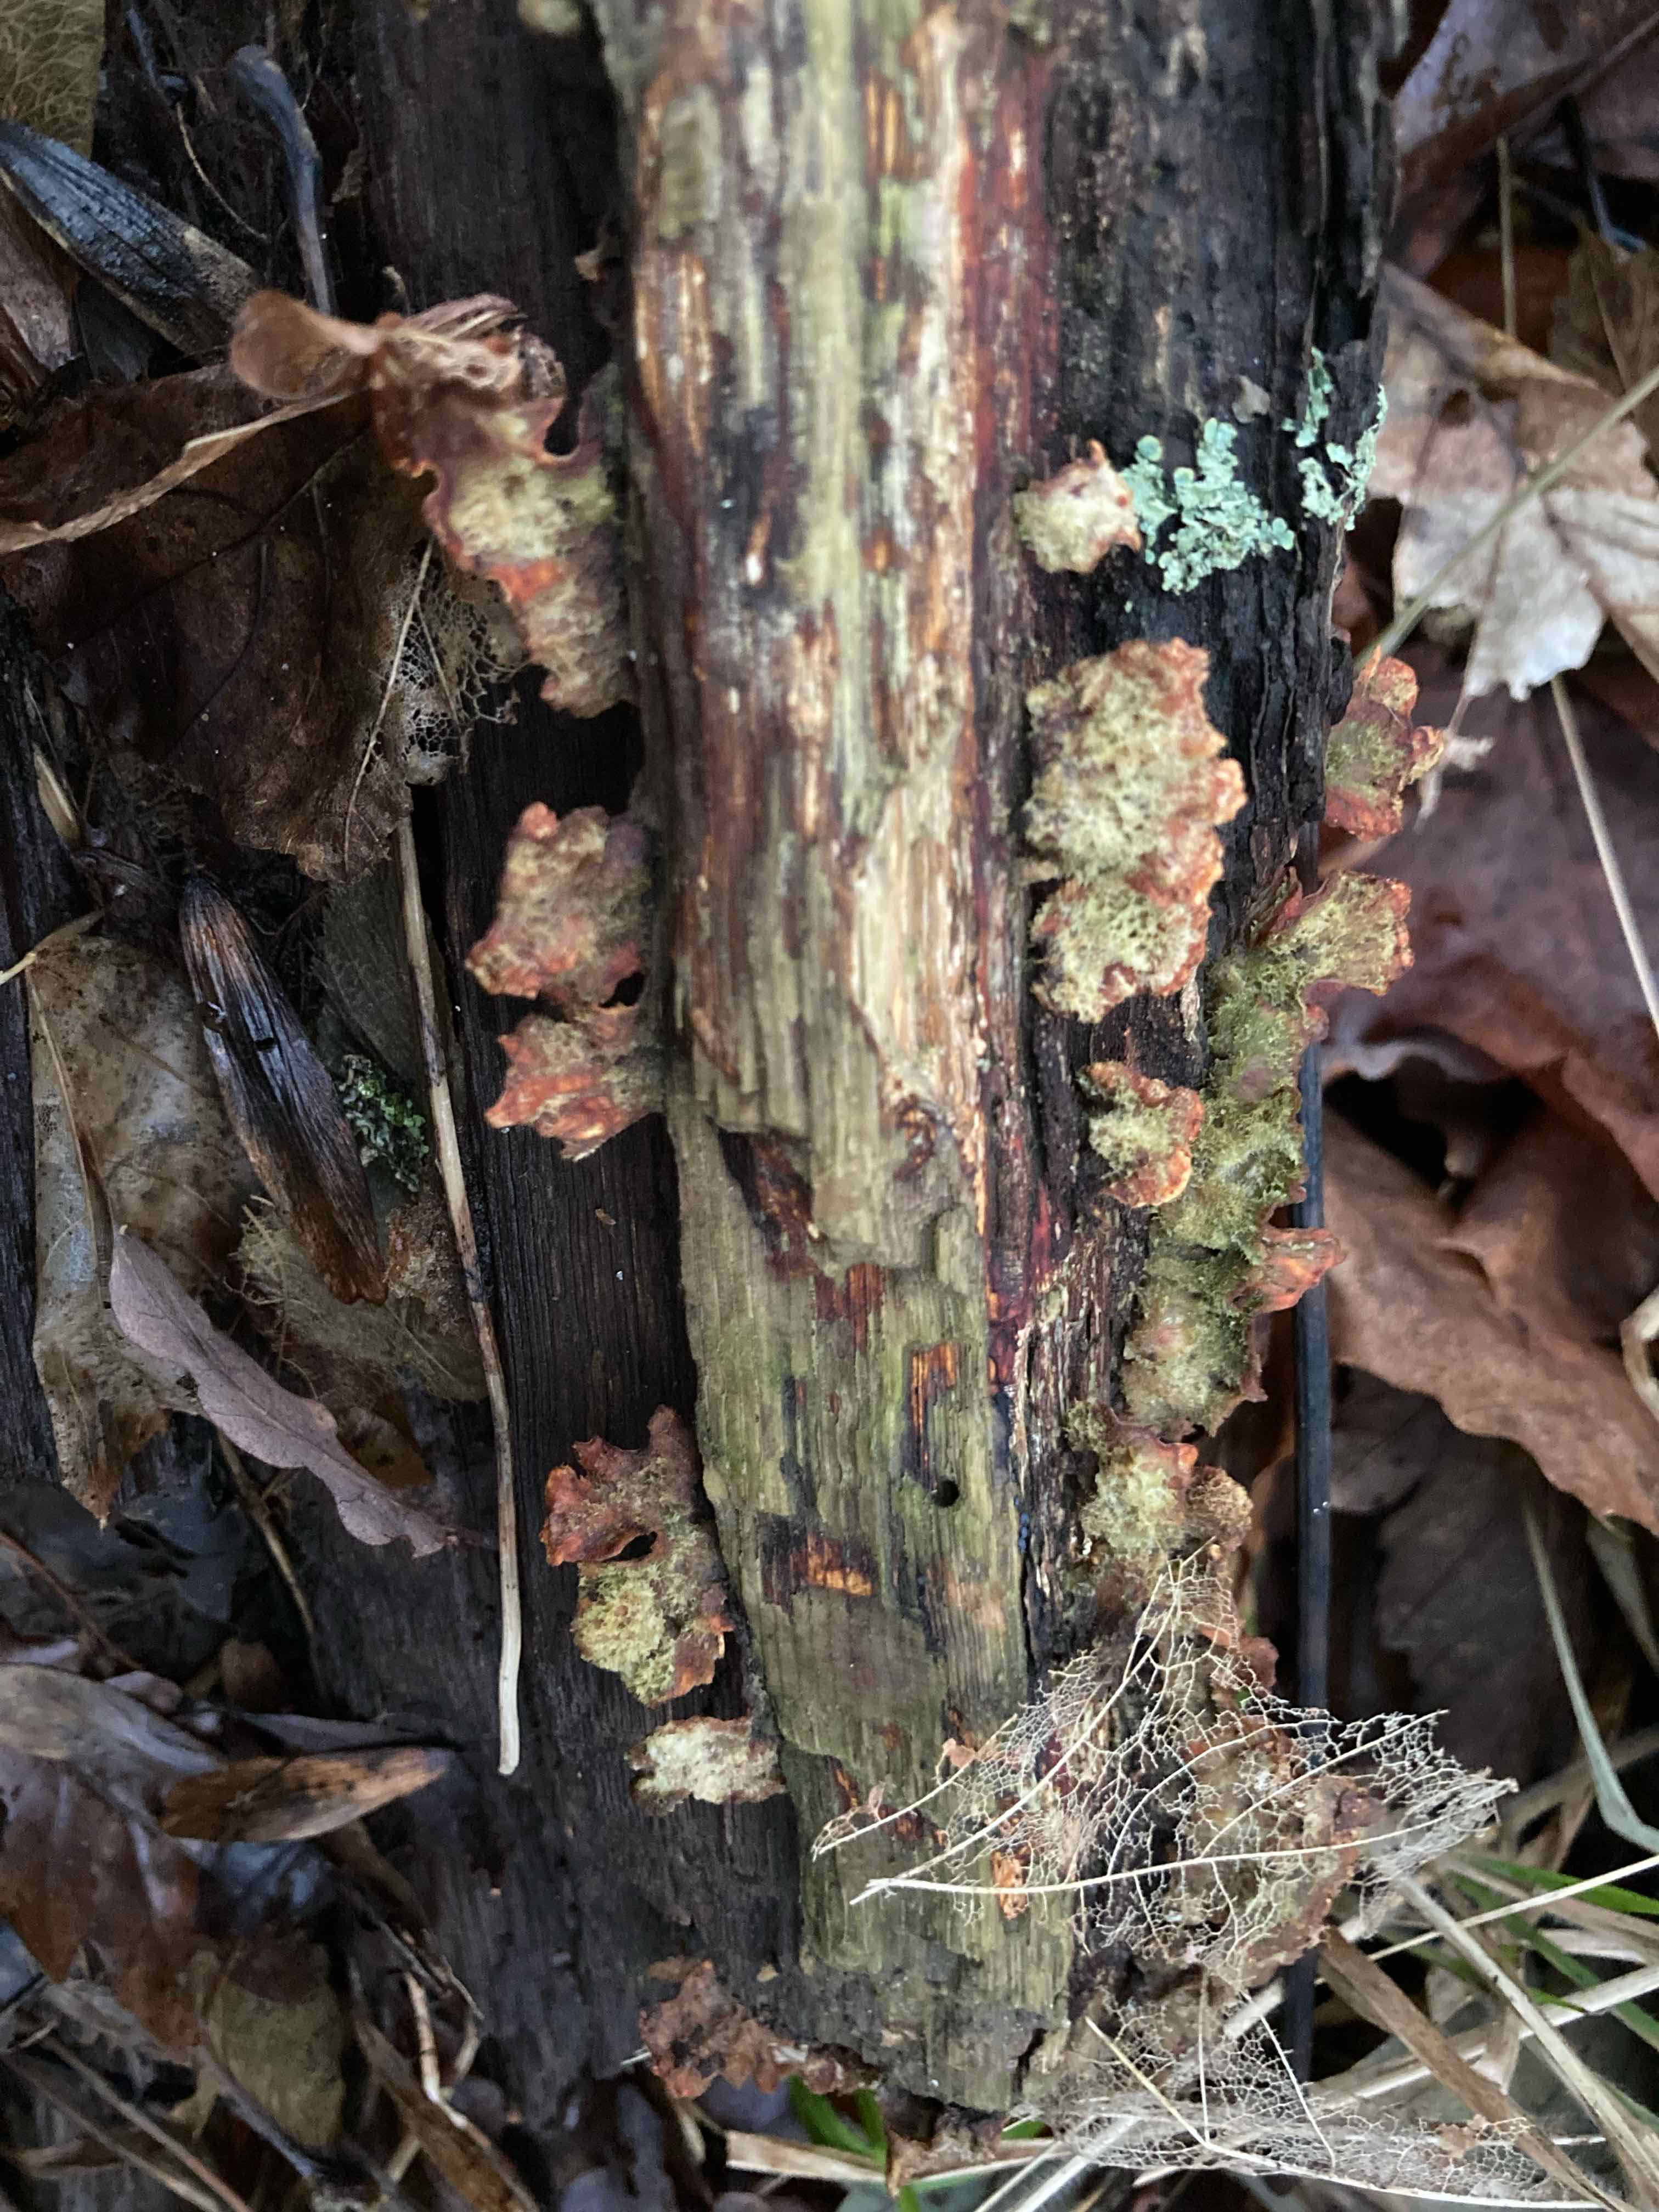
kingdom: Fungi
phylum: Basidiomycota
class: Agaricomycetes
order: Russulales
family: Stereaceae
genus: Stereum
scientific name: Stereum hirsutum
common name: håret lædersvamp
